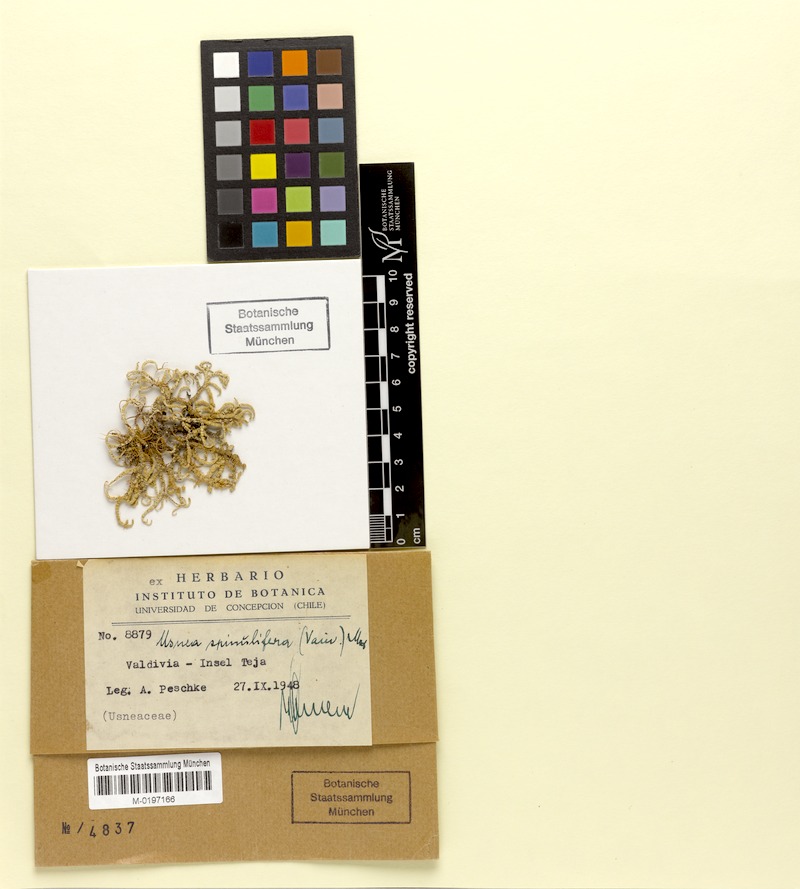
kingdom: Fungi
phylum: Ascomycota
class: Lecanoromycetes
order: Lecanorales
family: Parmeliaceae
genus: Usnea
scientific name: Usnea spinulifera
